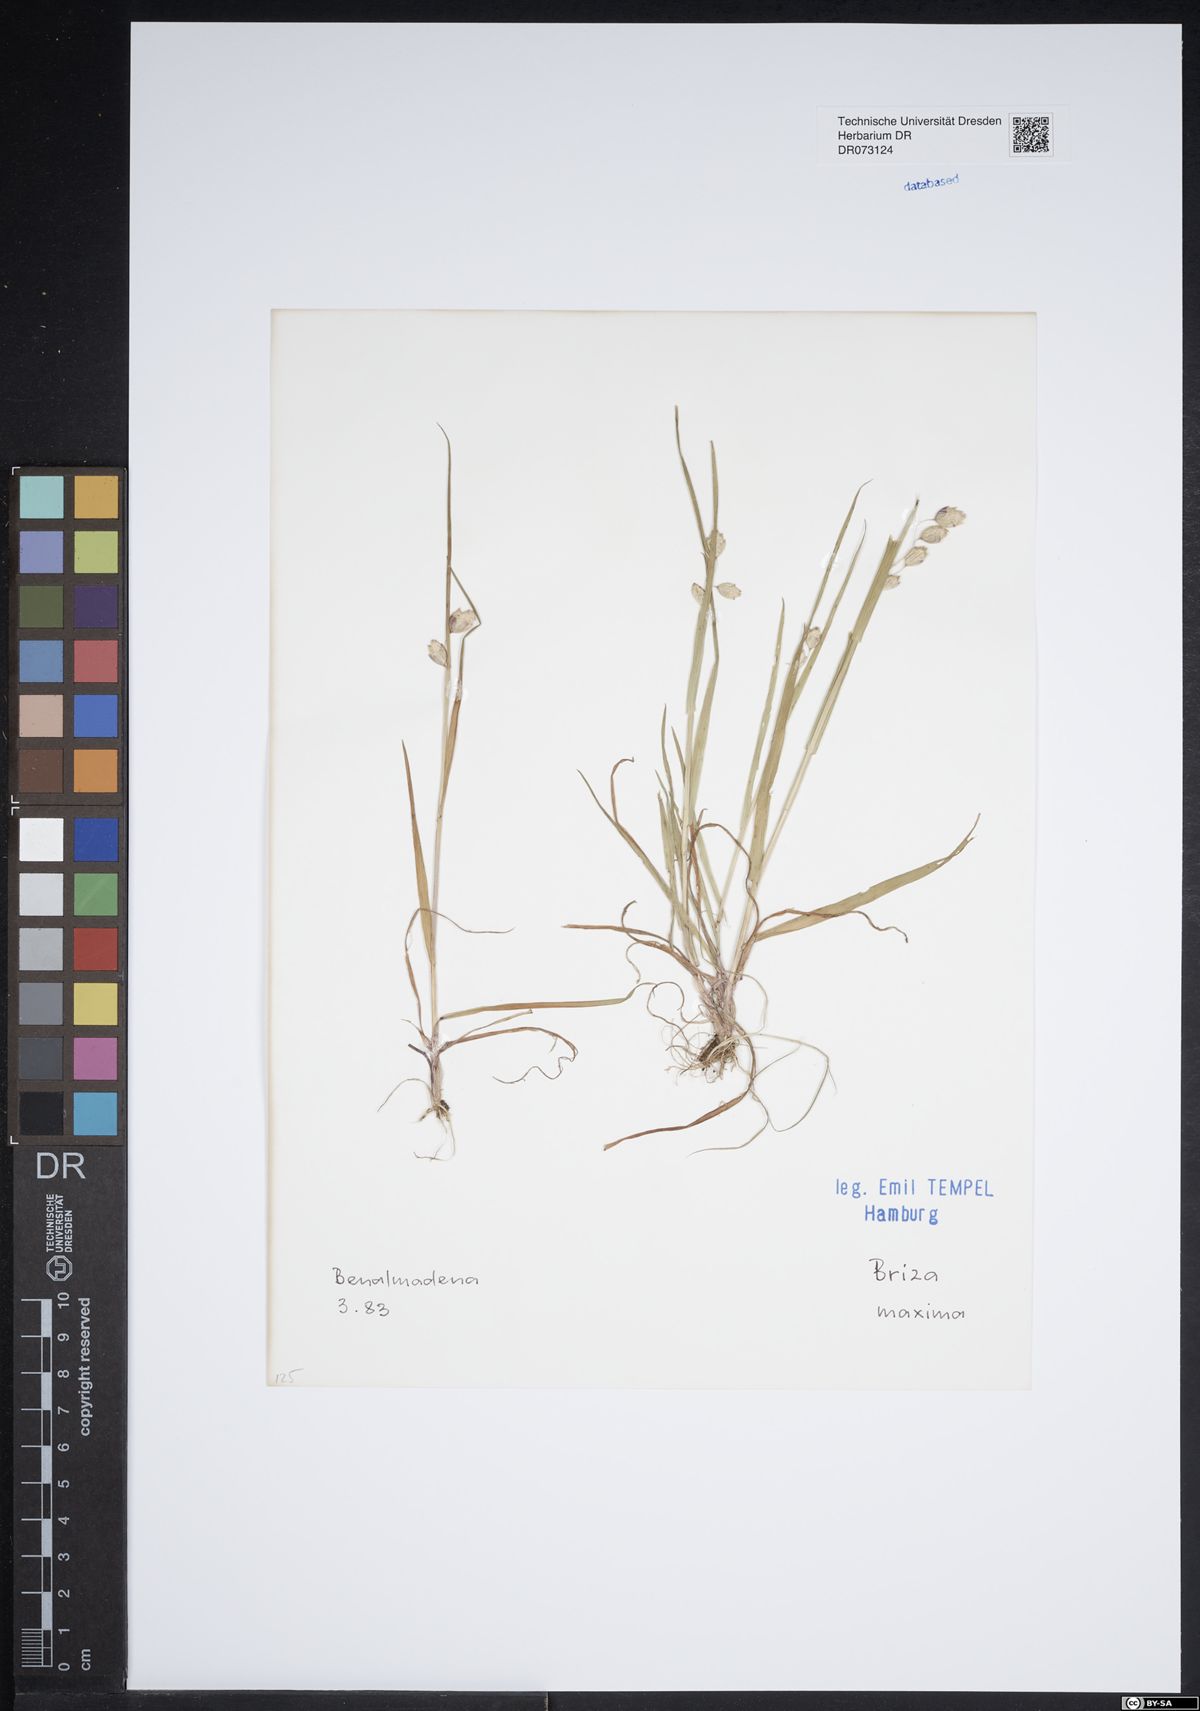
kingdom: Plantae
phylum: Tracheophyta
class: Liliopsida
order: Poales
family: Poaceae
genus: Briza
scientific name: Briza maxima
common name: Big quakinggrass
